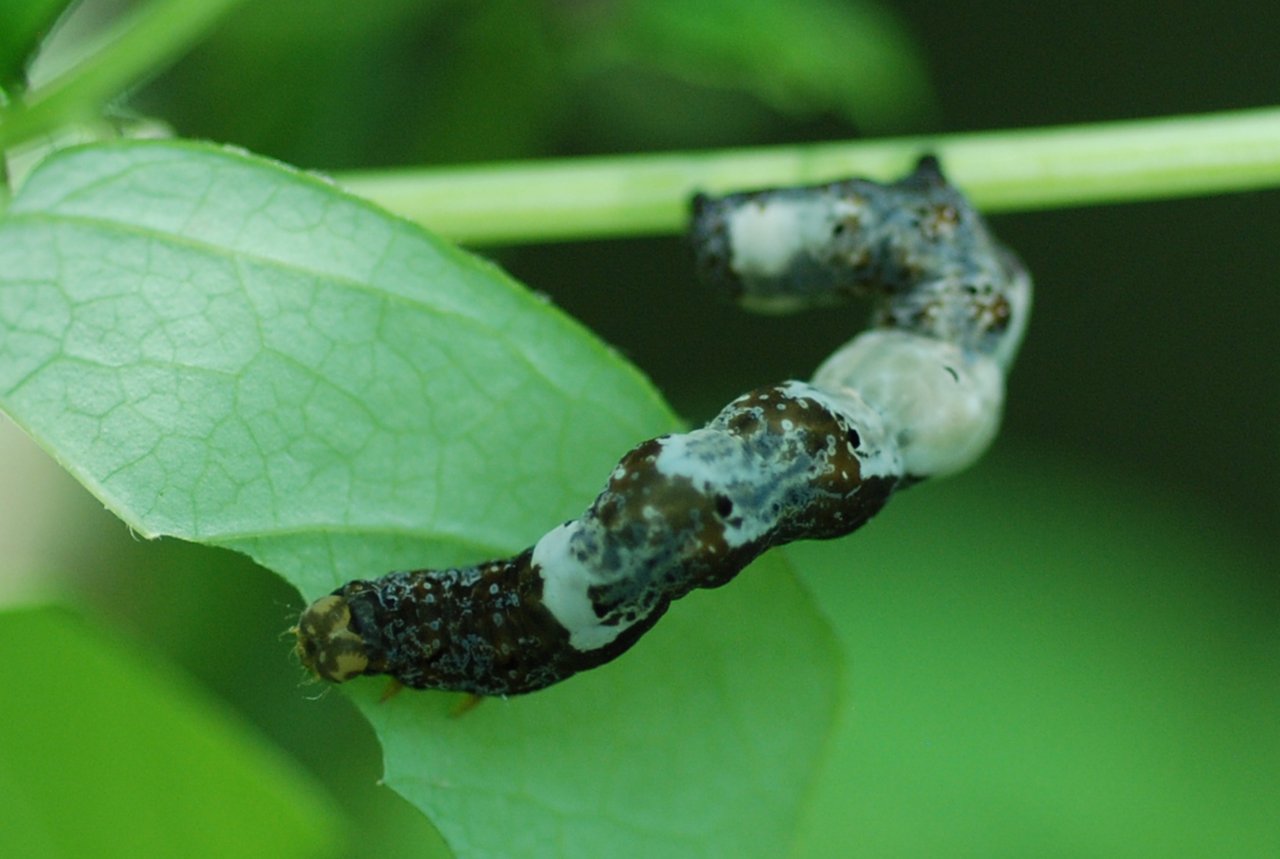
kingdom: Animalia
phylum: Arthropoda
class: Insecta
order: Lepidoptera
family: Nymphalidae
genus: Limenitis
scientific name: Limenitis arthemis
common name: Red-spotted Admiral
